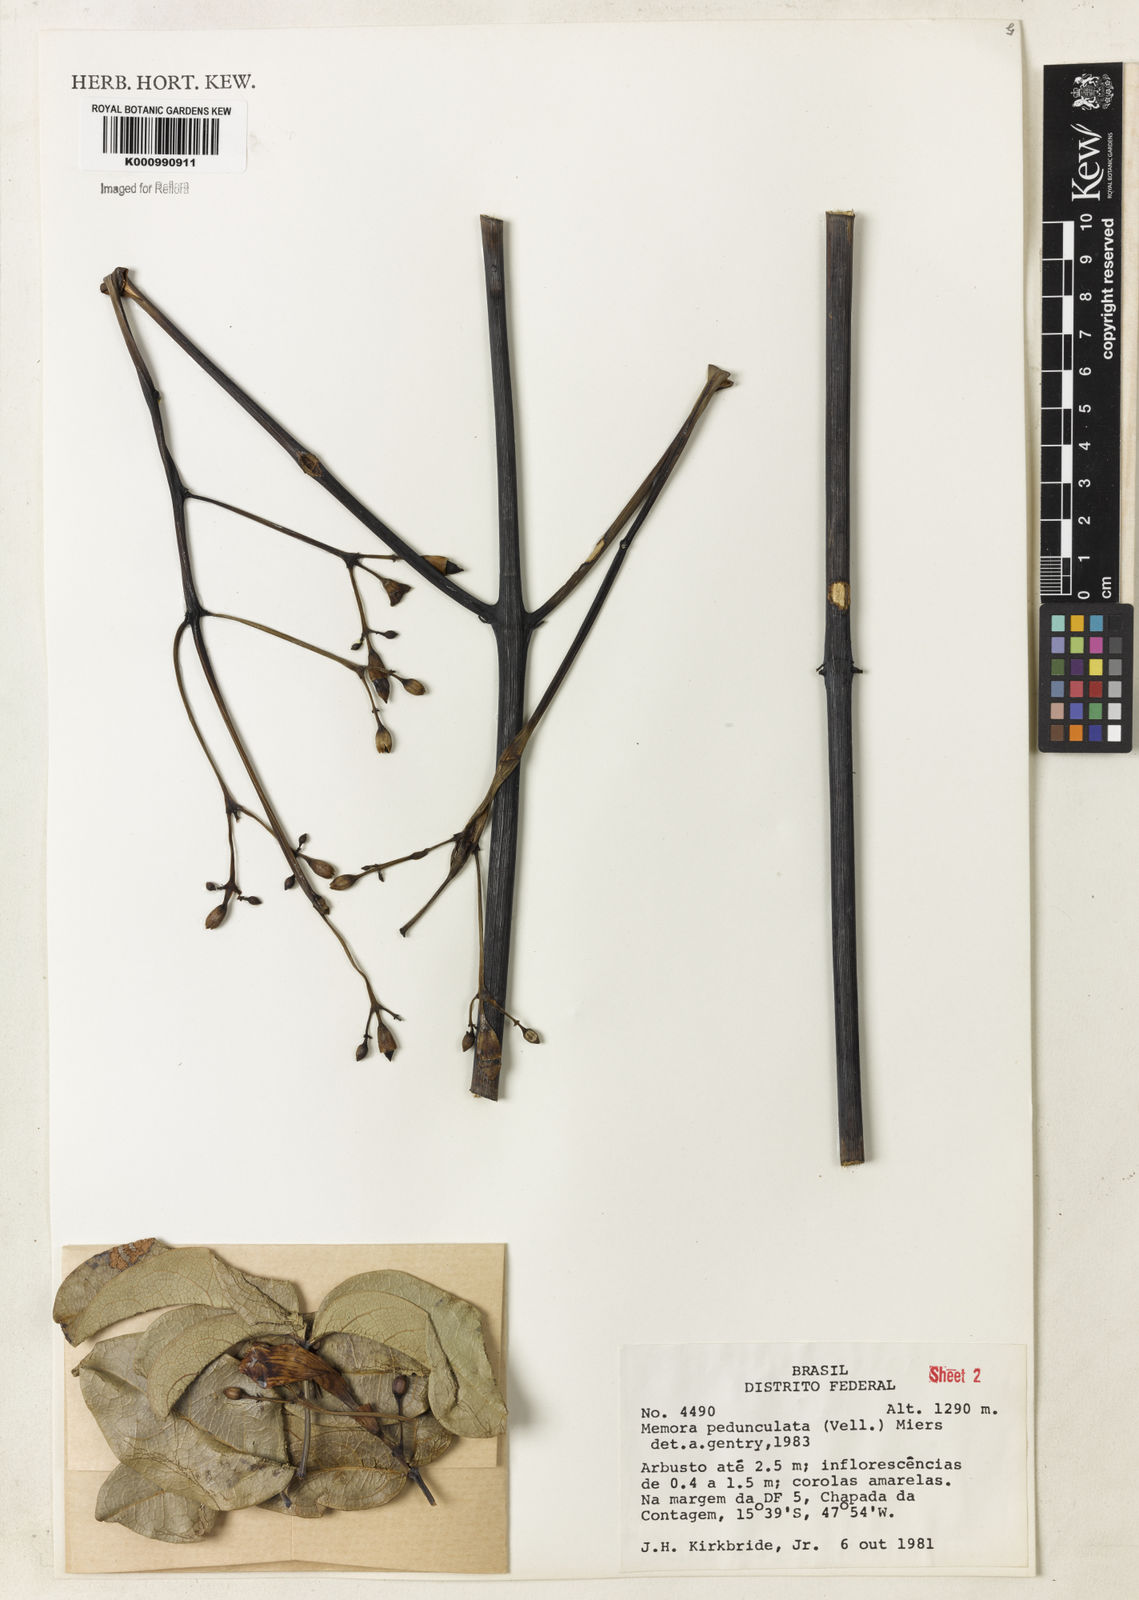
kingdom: Plantae
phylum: Tracheophyta
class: Magnoliopsida
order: Lamiales
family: Bignoniaceae
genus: Adenocalymma
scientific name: Adenocalymma pedunculatum
